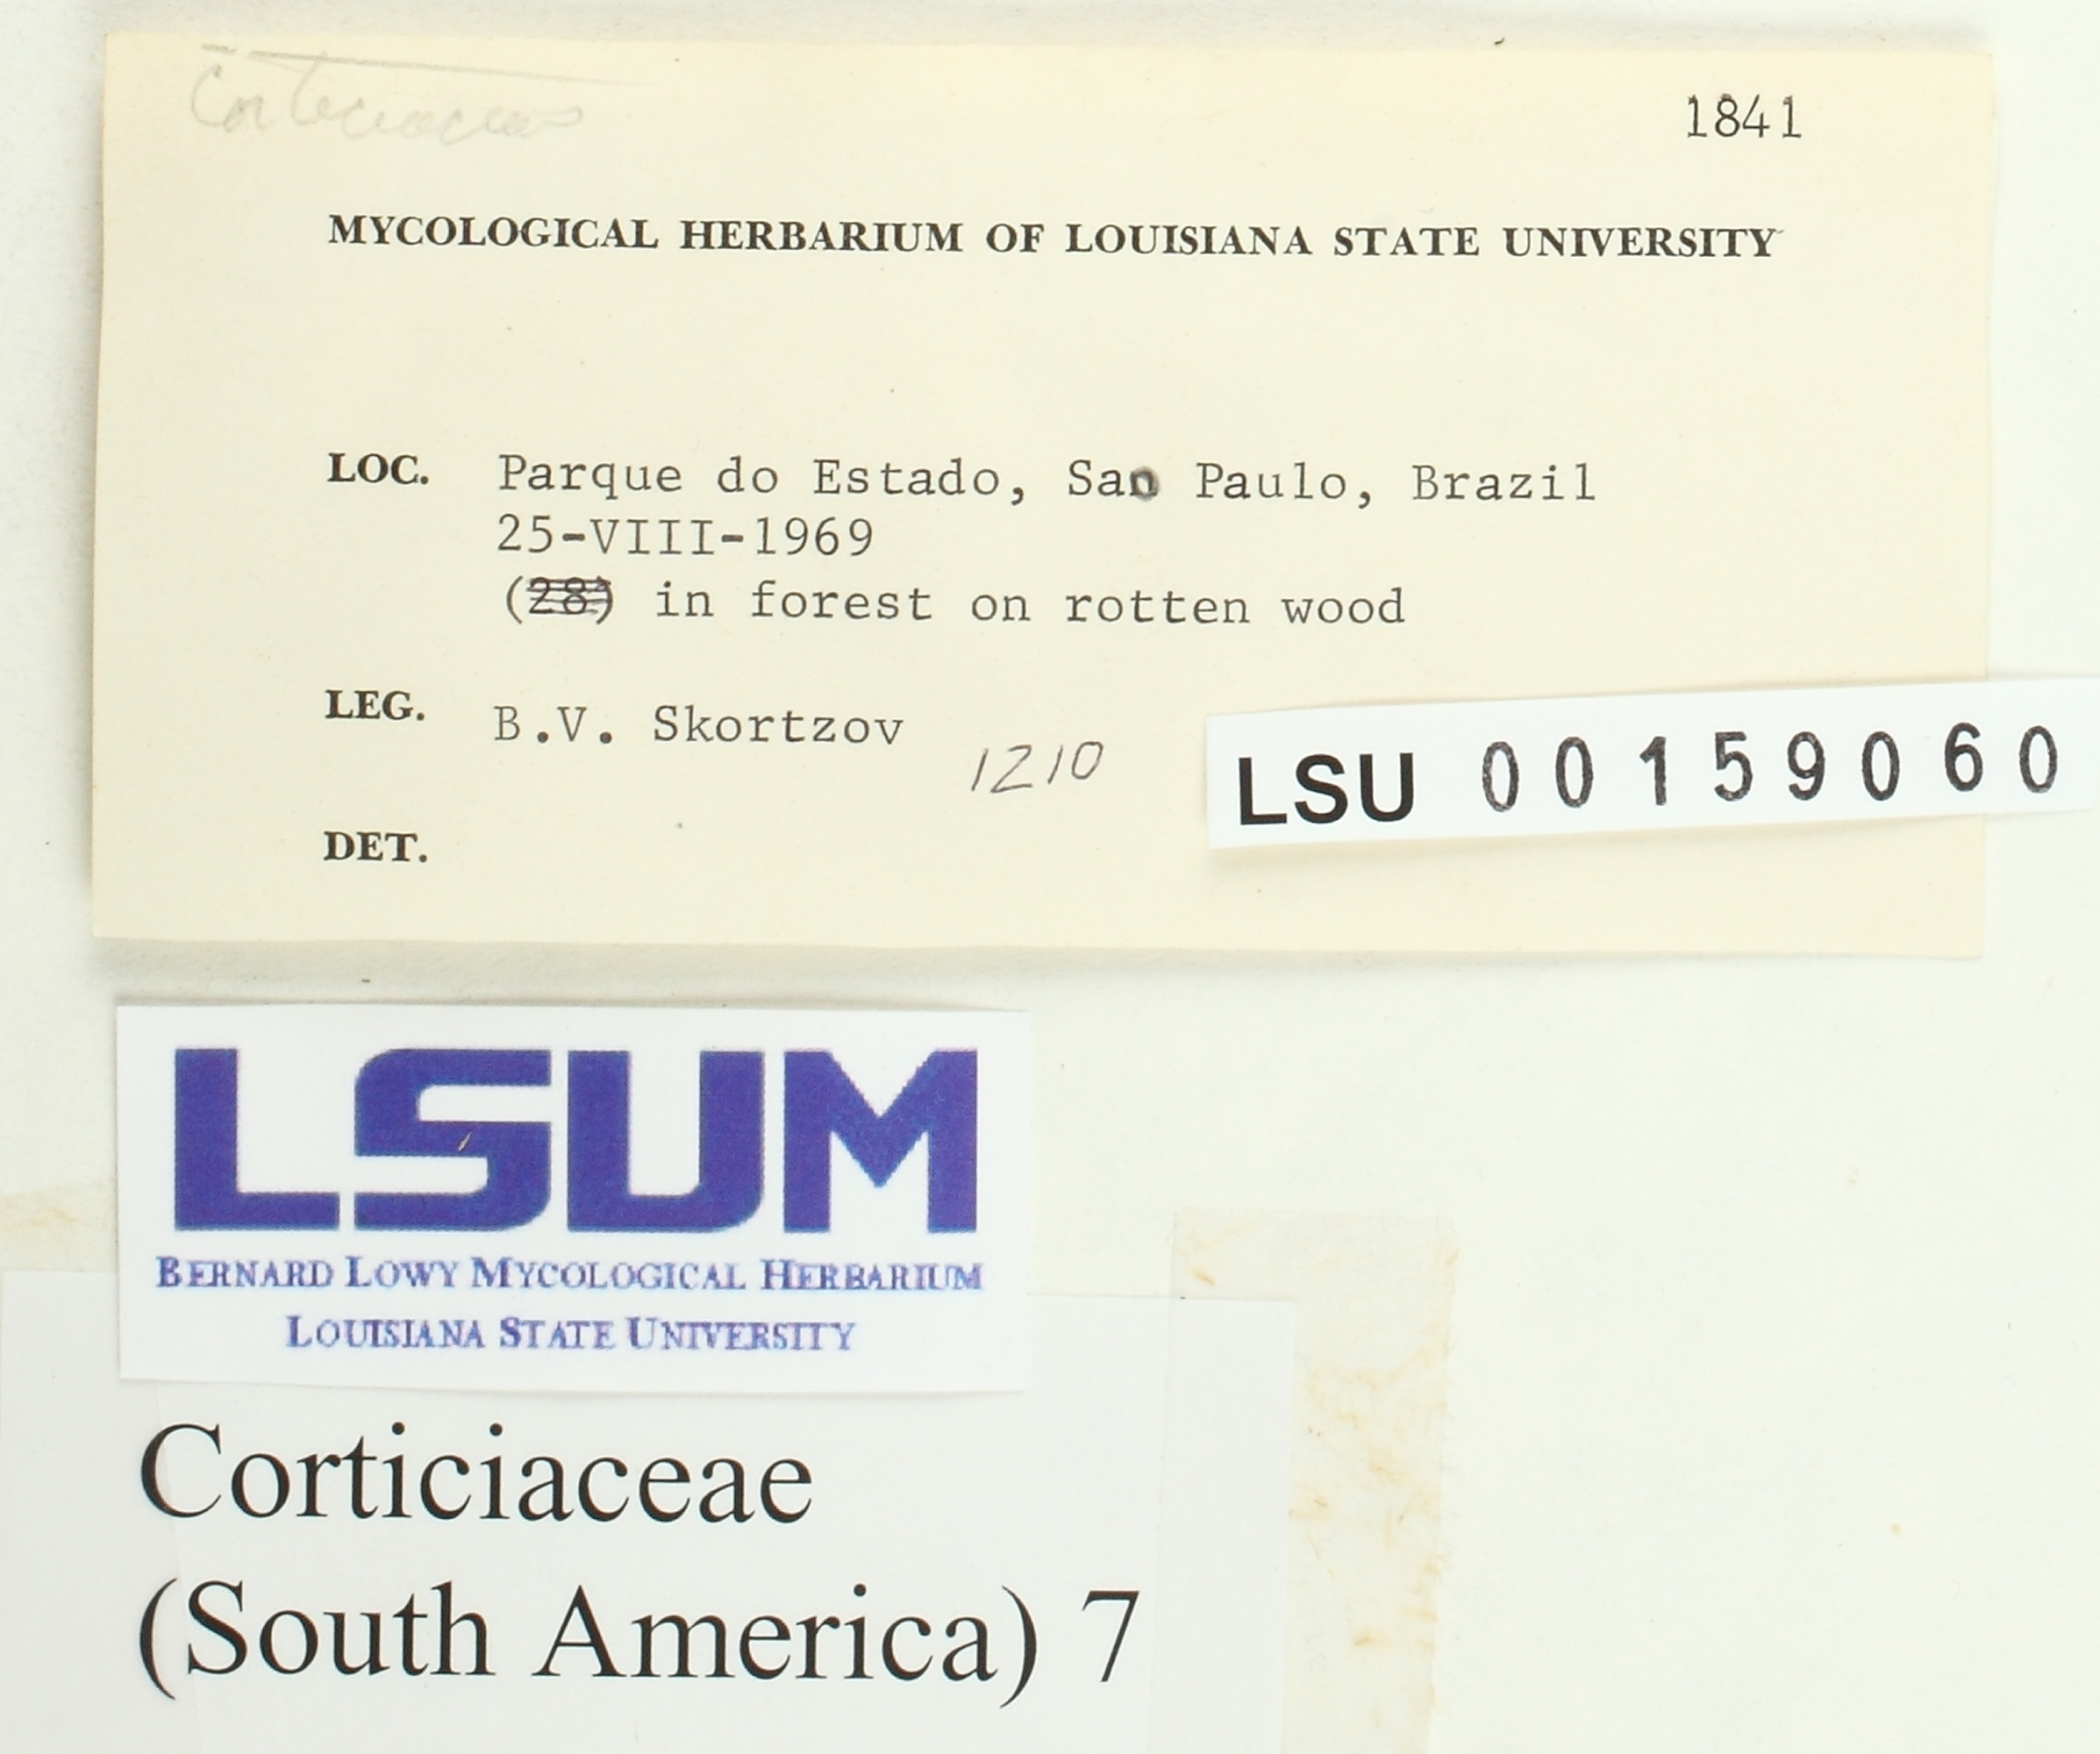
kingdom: Fungi
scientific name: Fungi
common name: Fungi
